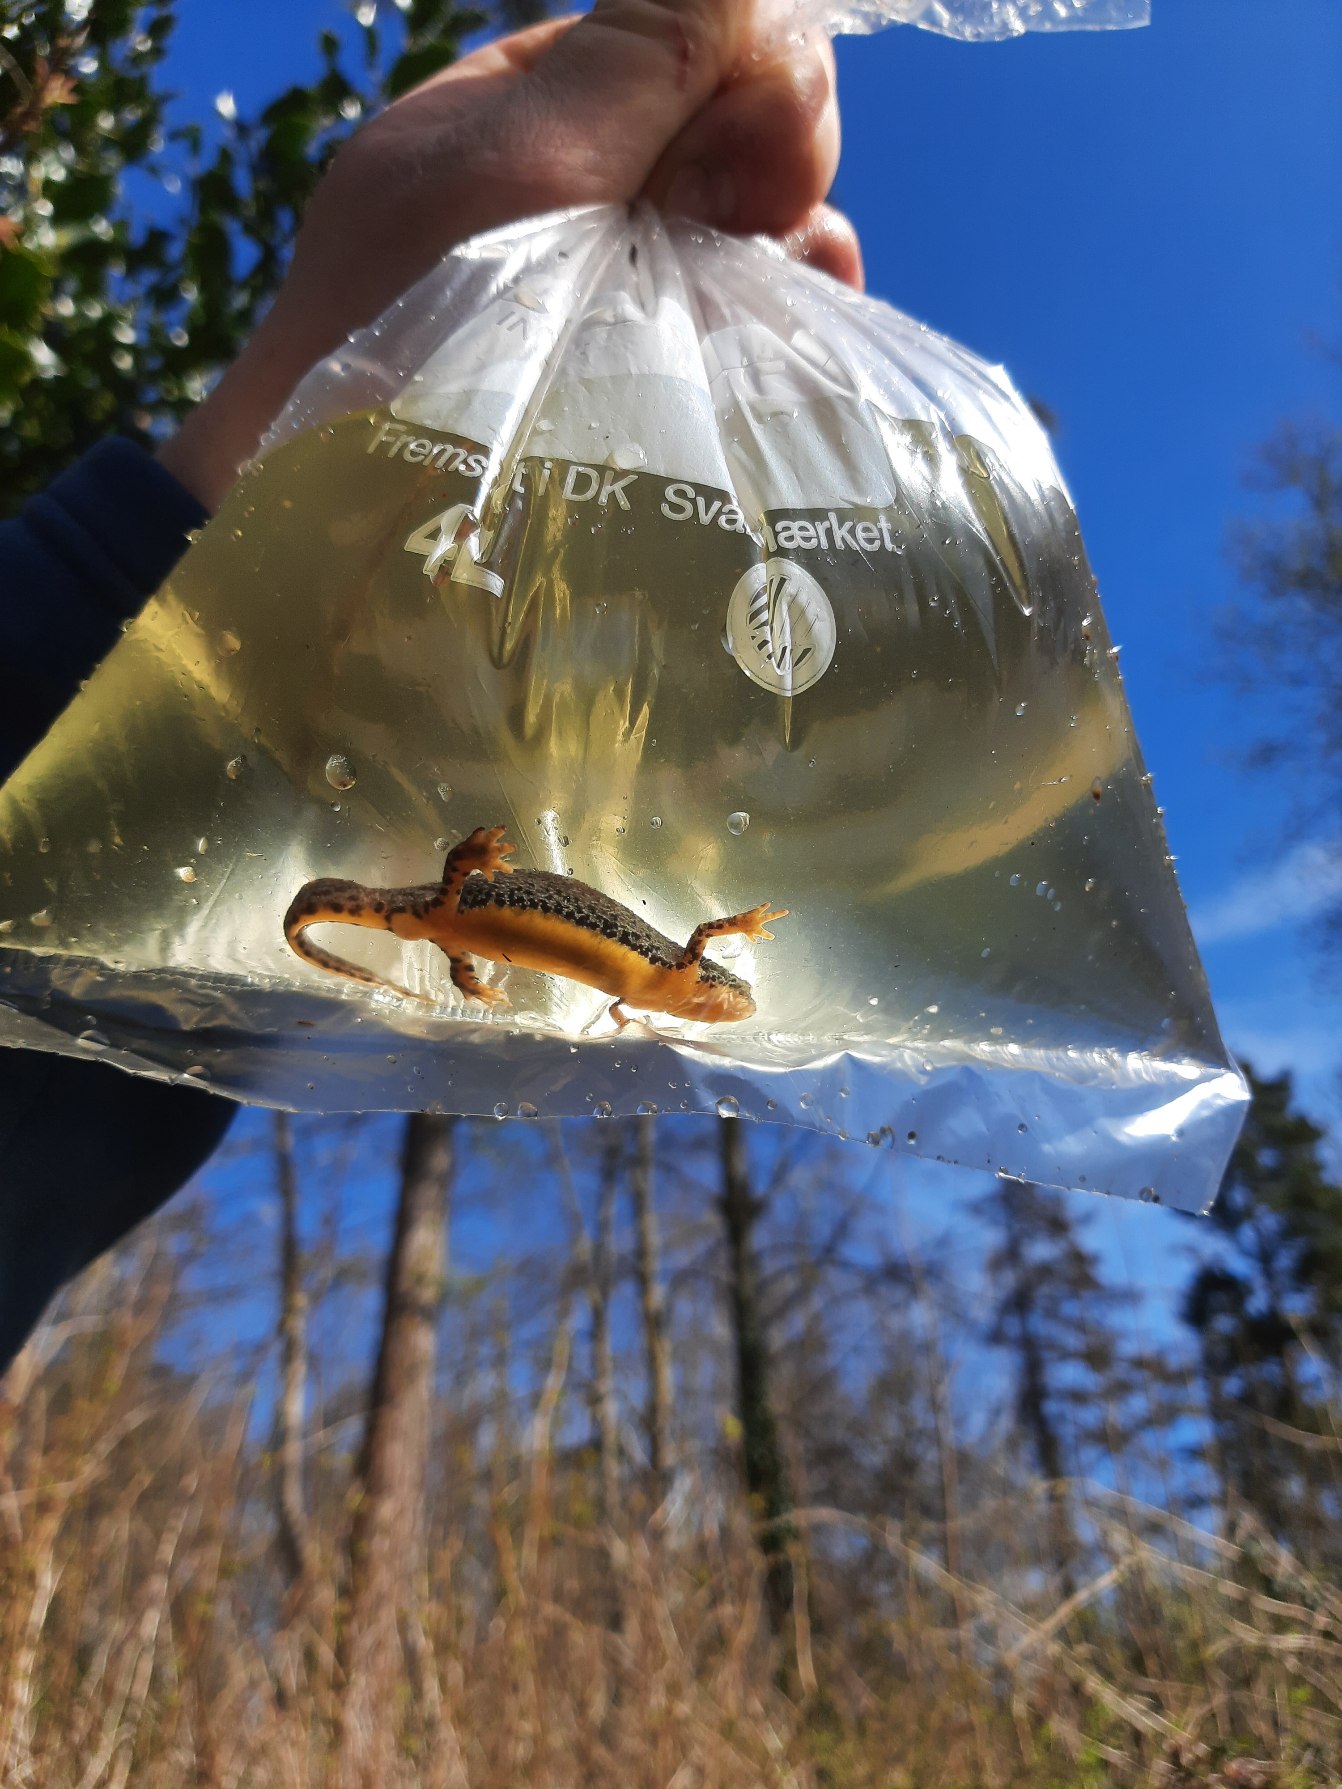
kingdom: Animalia
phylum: Chordata
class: Amphibia
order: Caudata
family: Salamandridae
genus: Ichthyosaura
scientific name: Ichthyosaura alpestris
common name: Bjergsalamander
